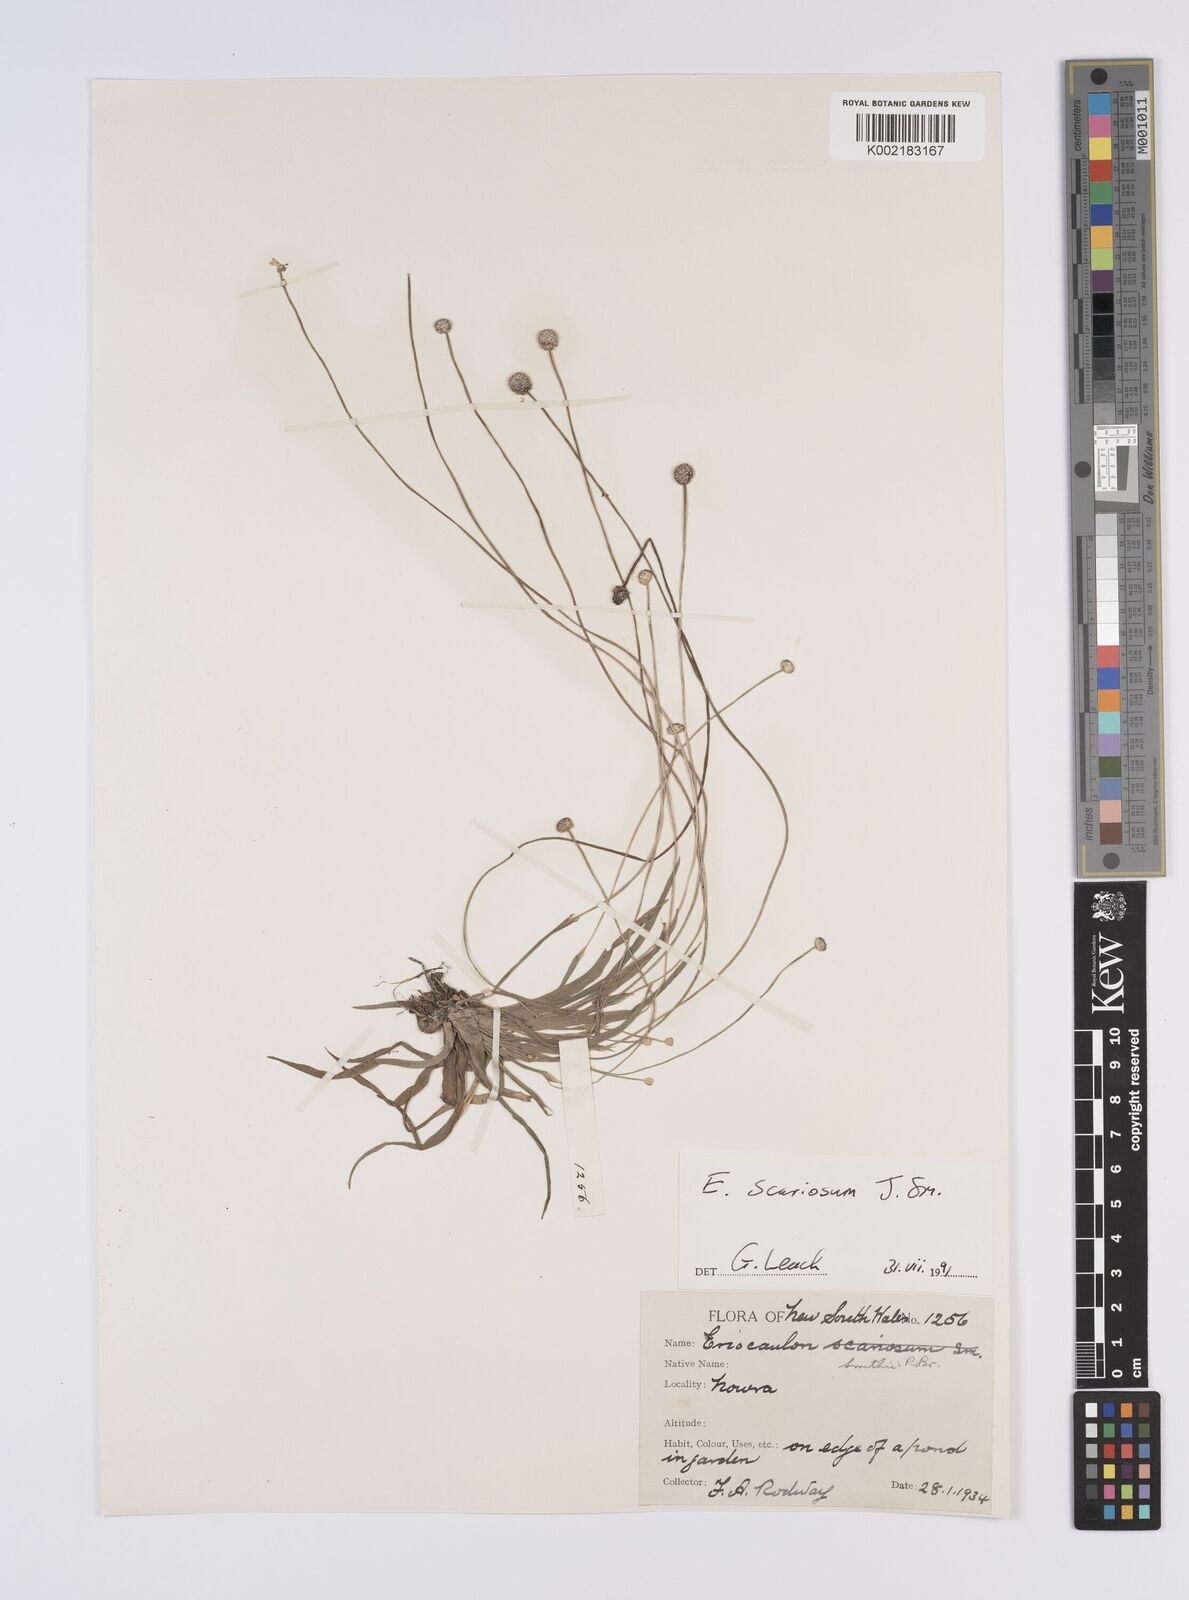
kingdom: Plantae
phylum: Tracheophyta
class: Liliopsida
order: Poales
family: Eriocaulaceae
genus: Eriocaulon
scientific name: Eriocaulon scariosum
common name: Rough pipewort
